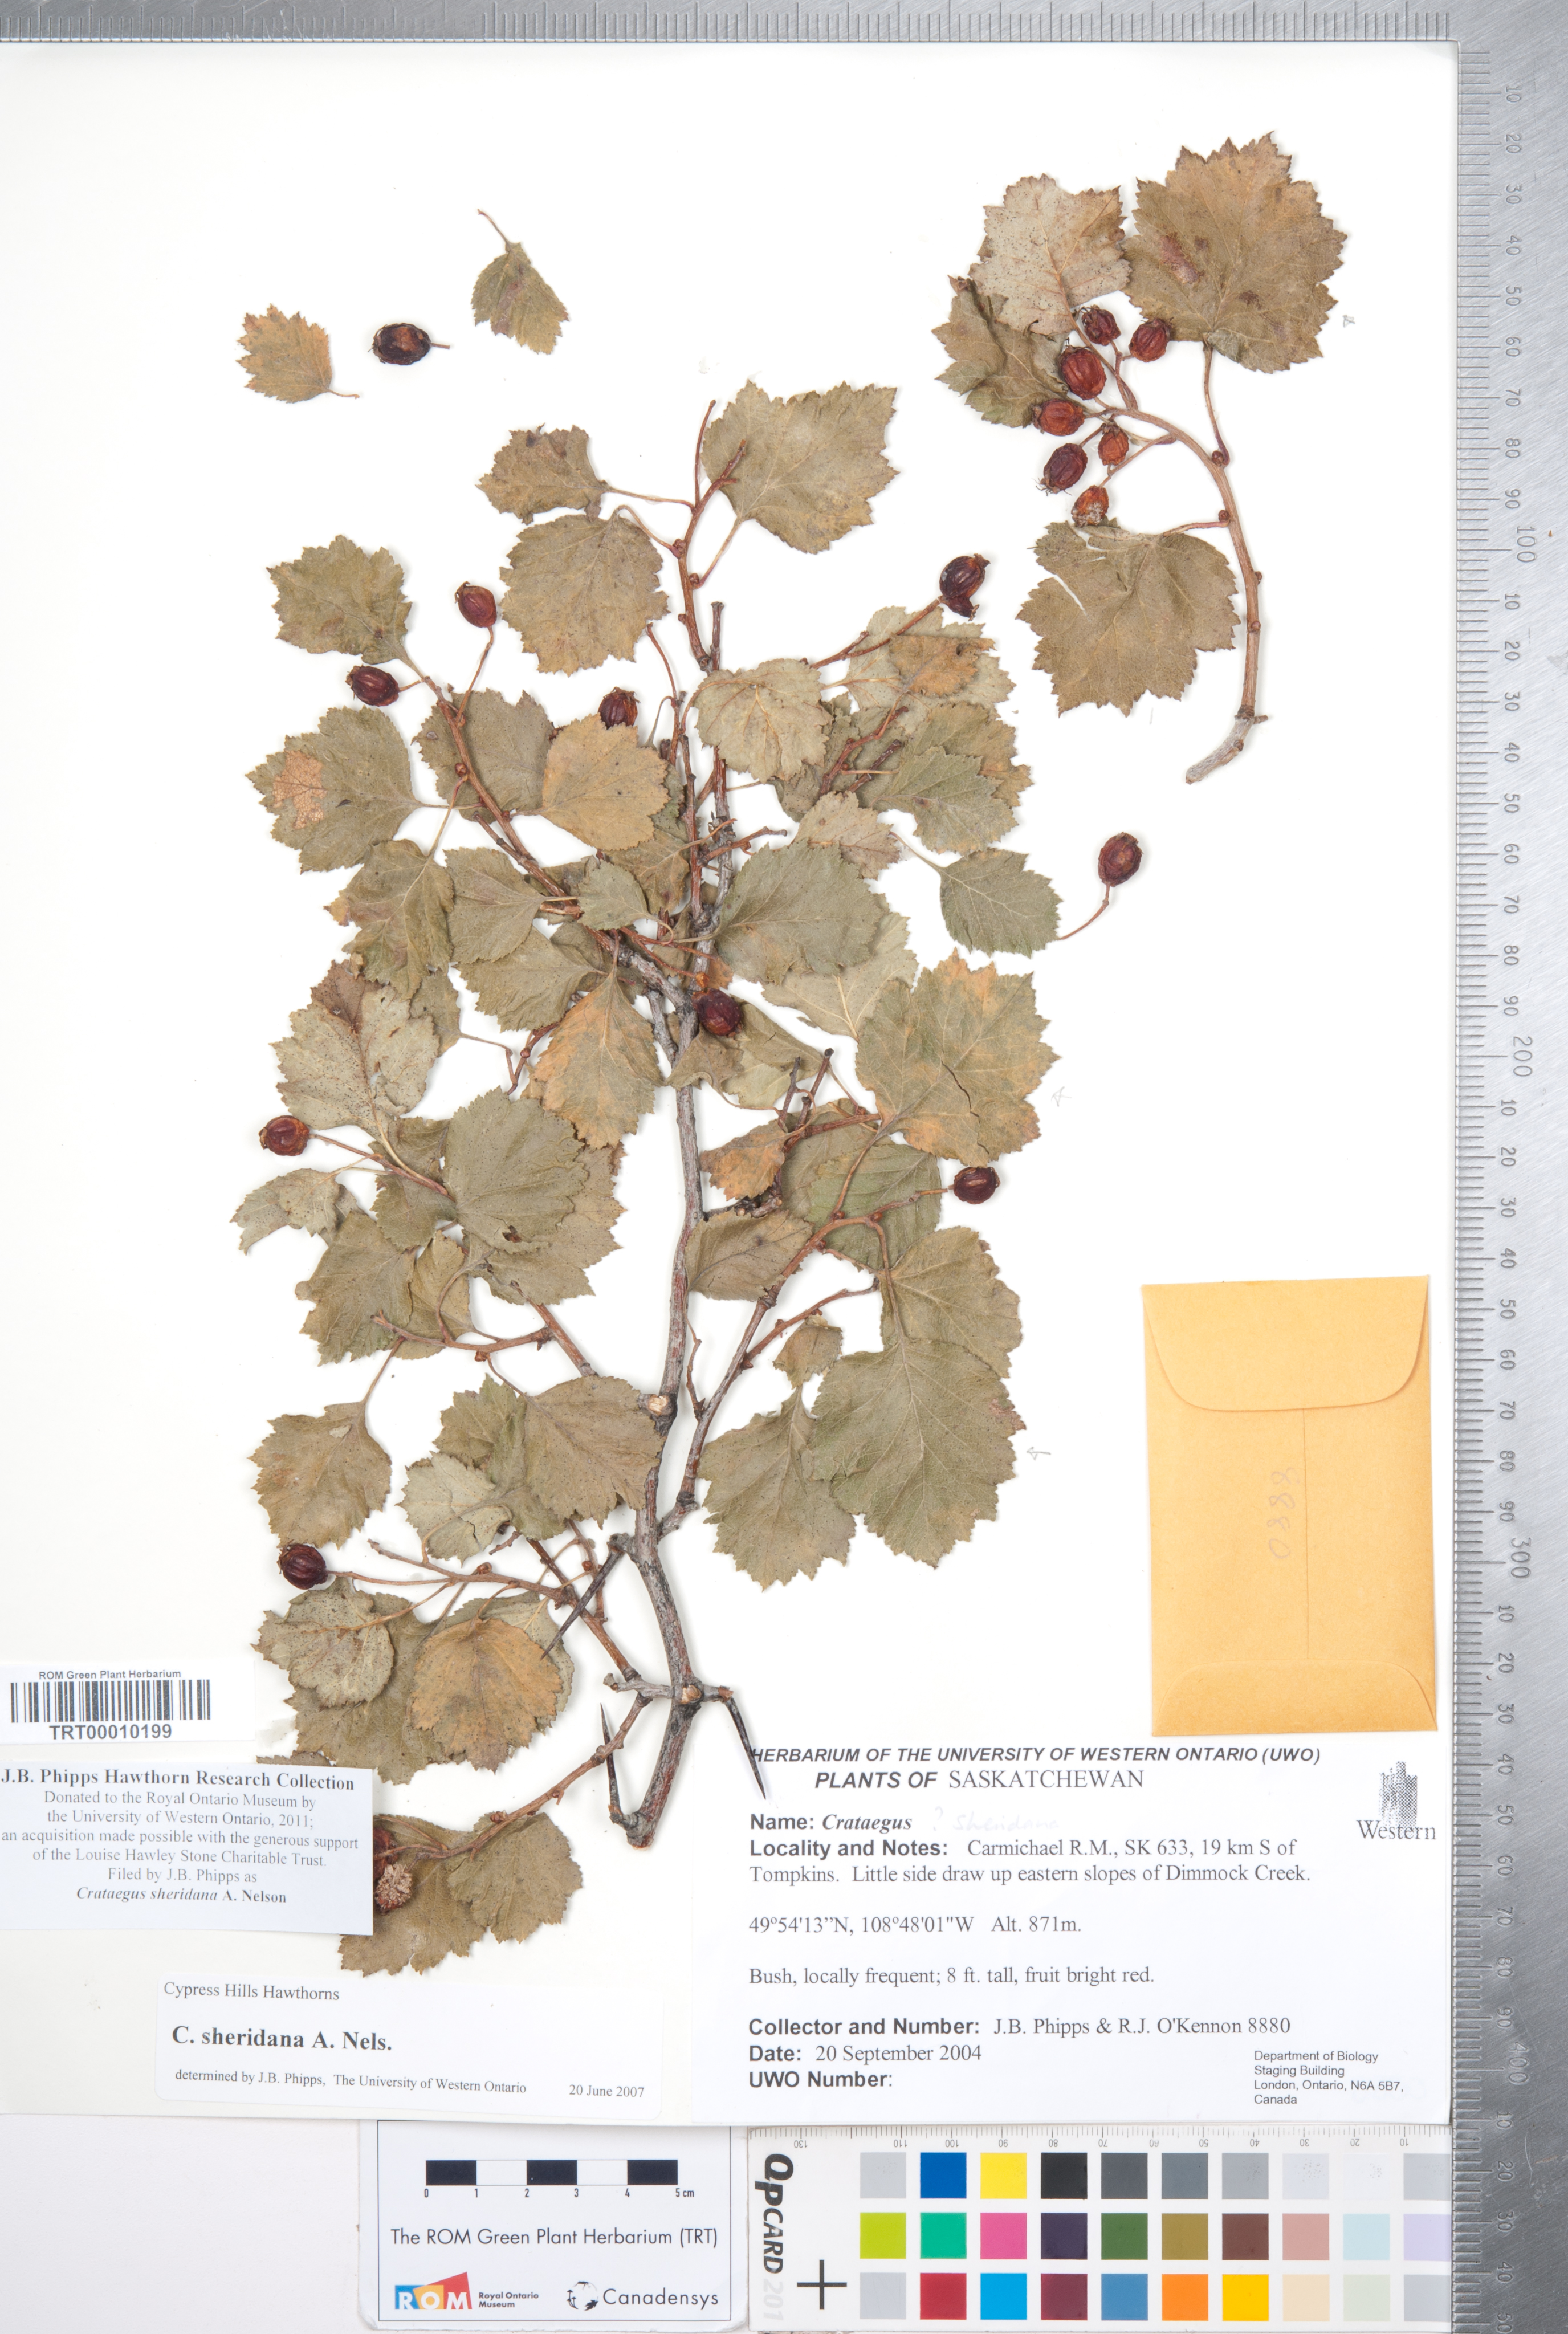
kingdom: Plantae
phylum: Tracheophyta
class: Magnoliopsida
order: Rosales
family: Rosaceae
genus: Crataegus
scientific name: Crataegus chrysocarpa
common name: Fire-berry hawthorn
